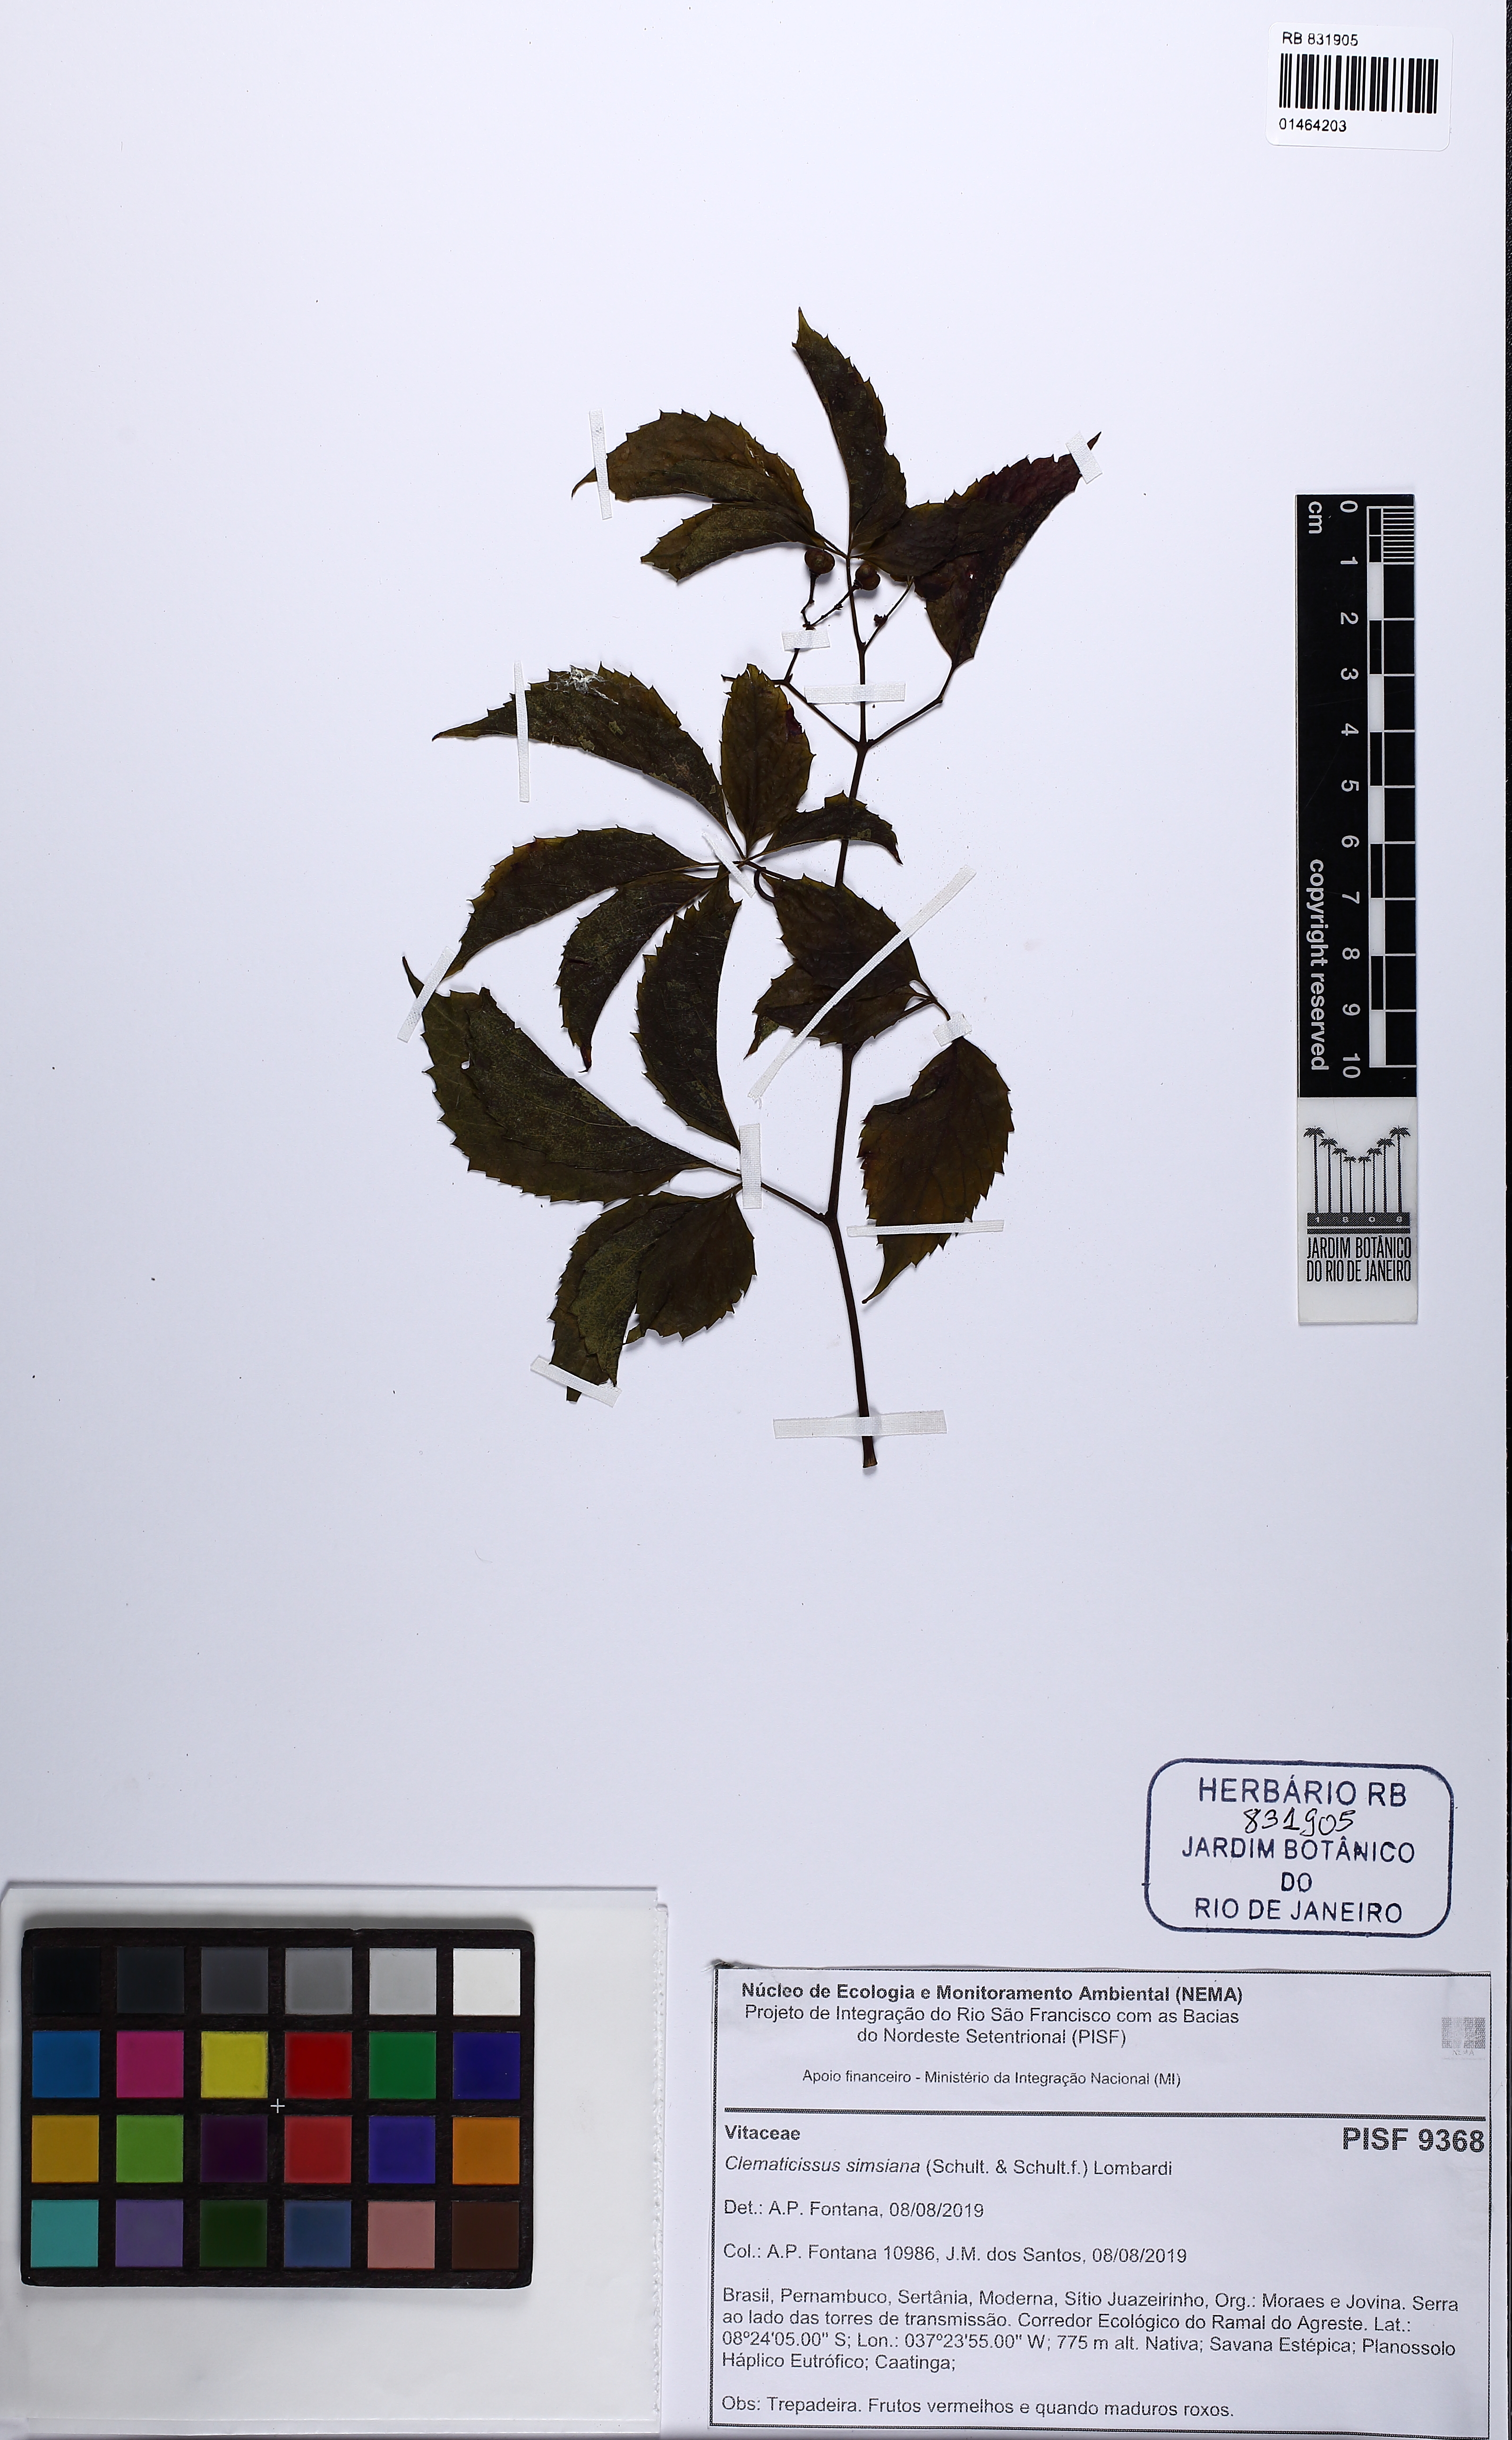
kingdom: Plantae
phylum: Tracheophyta
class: Magnoliopsida
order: Vitales
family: Vitaceae
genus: Clematicissus
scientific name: Clematicissus simsiana
